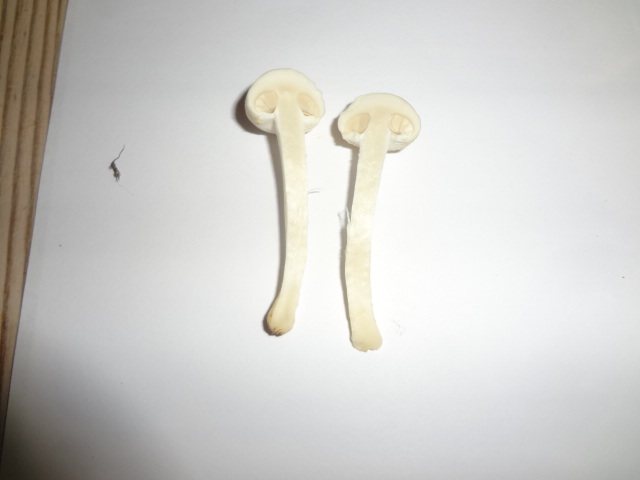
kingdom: Fungi
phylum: Basidiomycota
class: Agaricomycetes
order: Agaricales
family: Strophariaceae
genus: Agrocybe
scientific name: Agrocybe dura
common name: fastkødet agerhat
